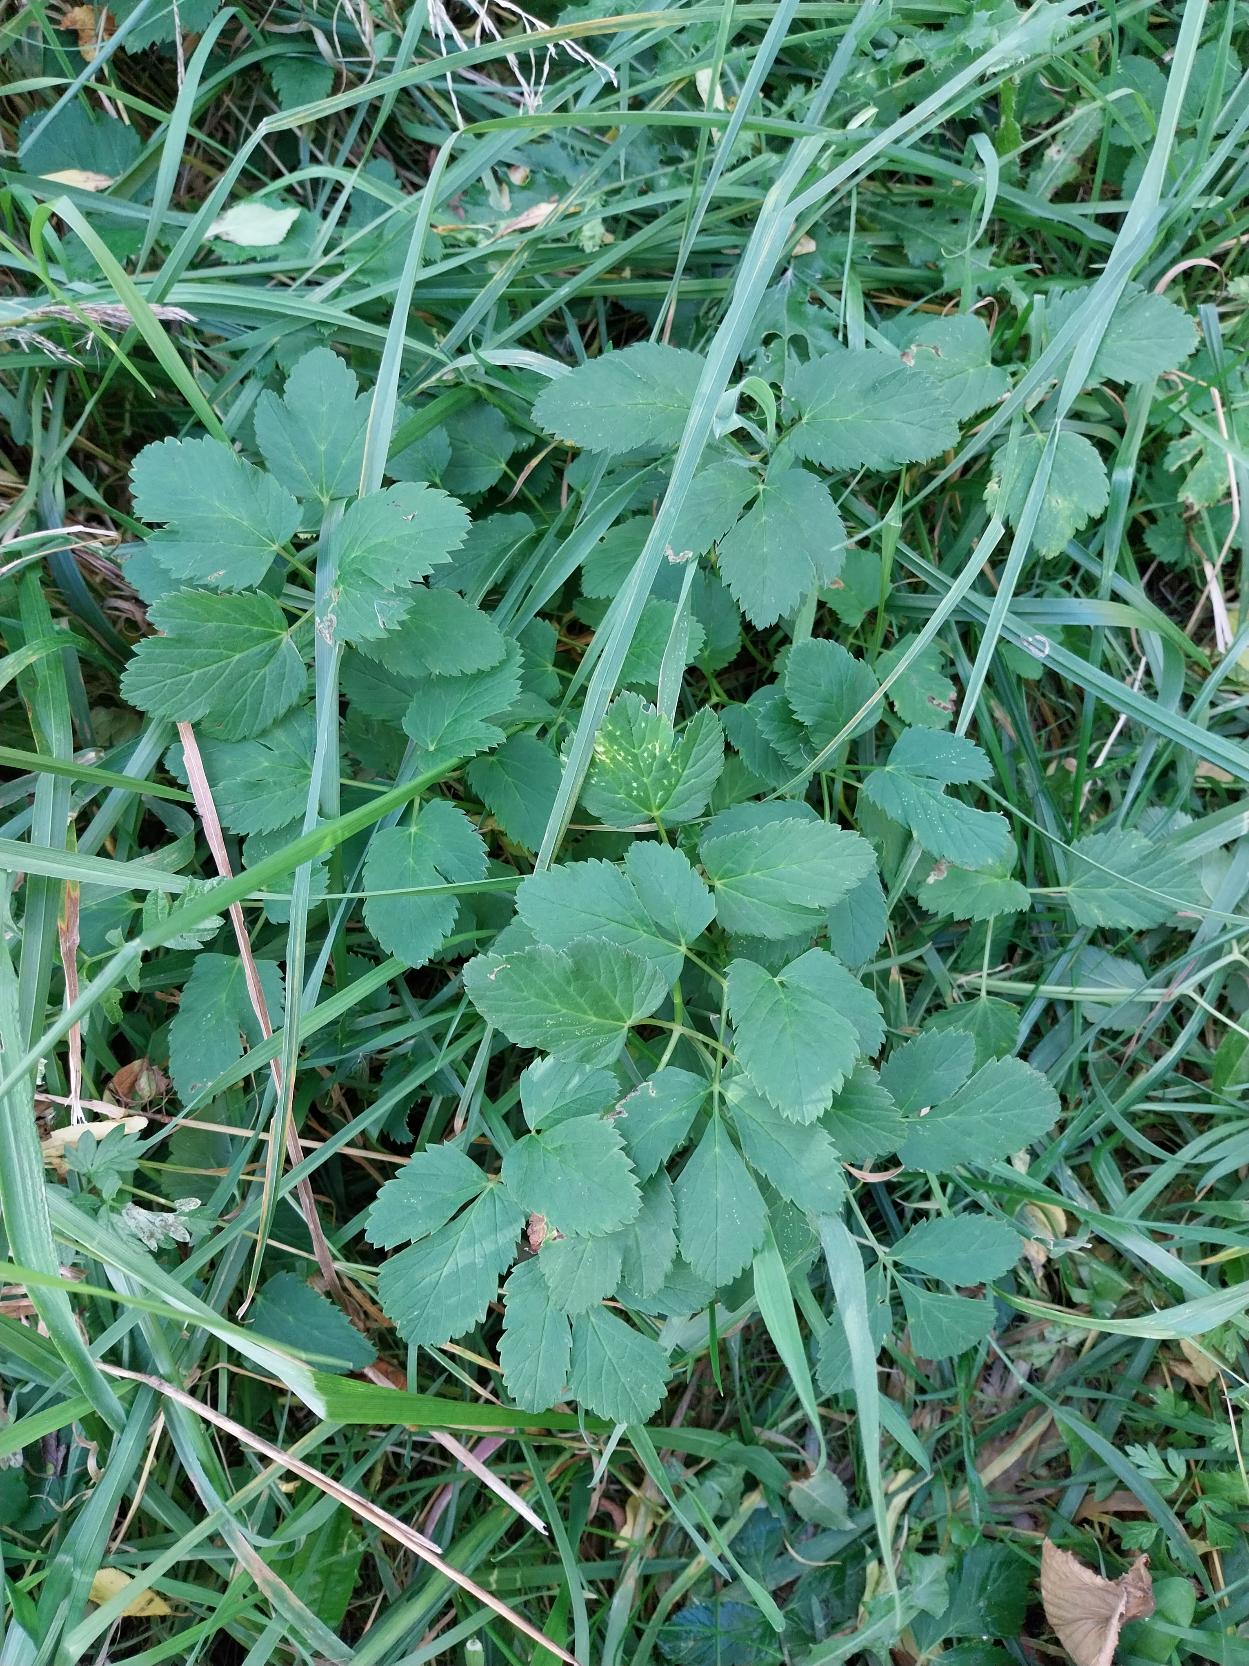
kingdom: Plantae
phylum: Tracheophyta
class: Magnoliopsida
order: Apiales
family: Apiaceae
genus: Aegopodium
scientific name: Aegopodium podagraria
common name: Skvalderkål
